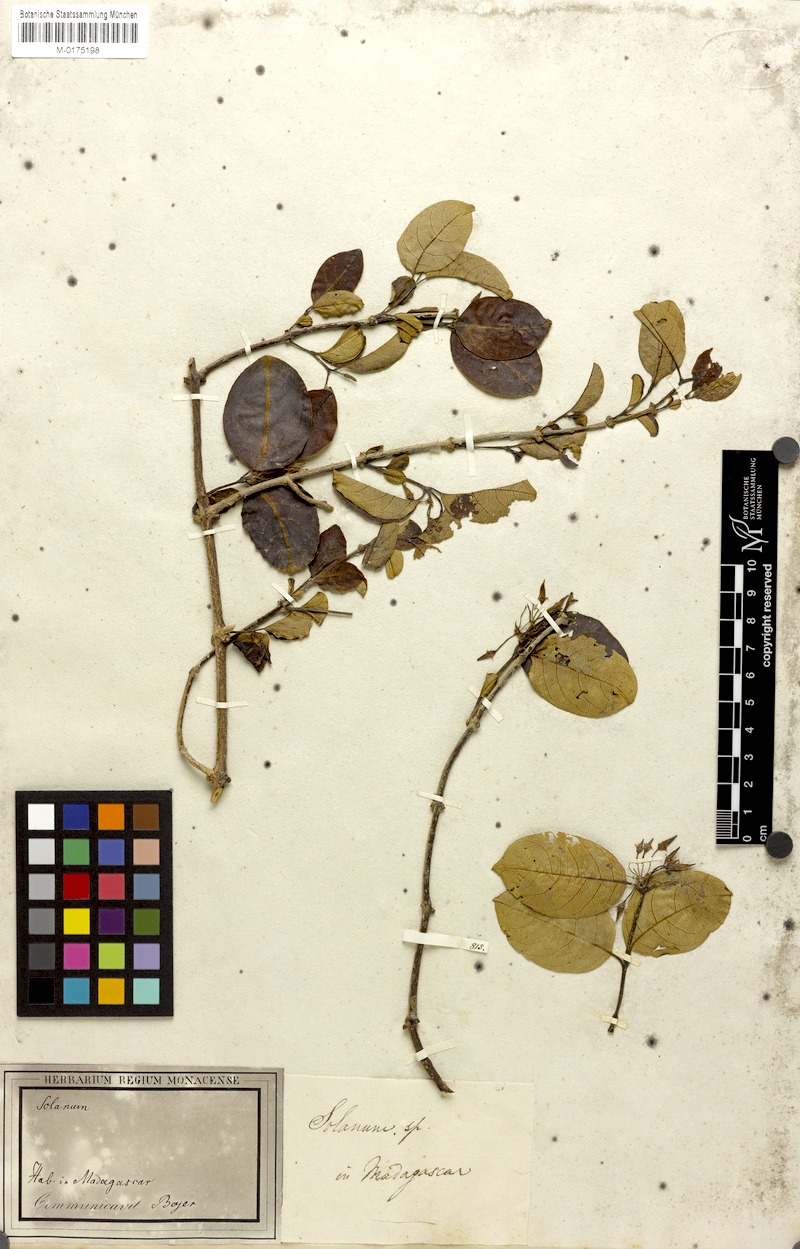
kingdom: Plantae
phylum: Tracheophyta
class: Magnoliopsida
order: Solanales
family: Solanaceae
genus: Solanum
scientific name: Solanum
